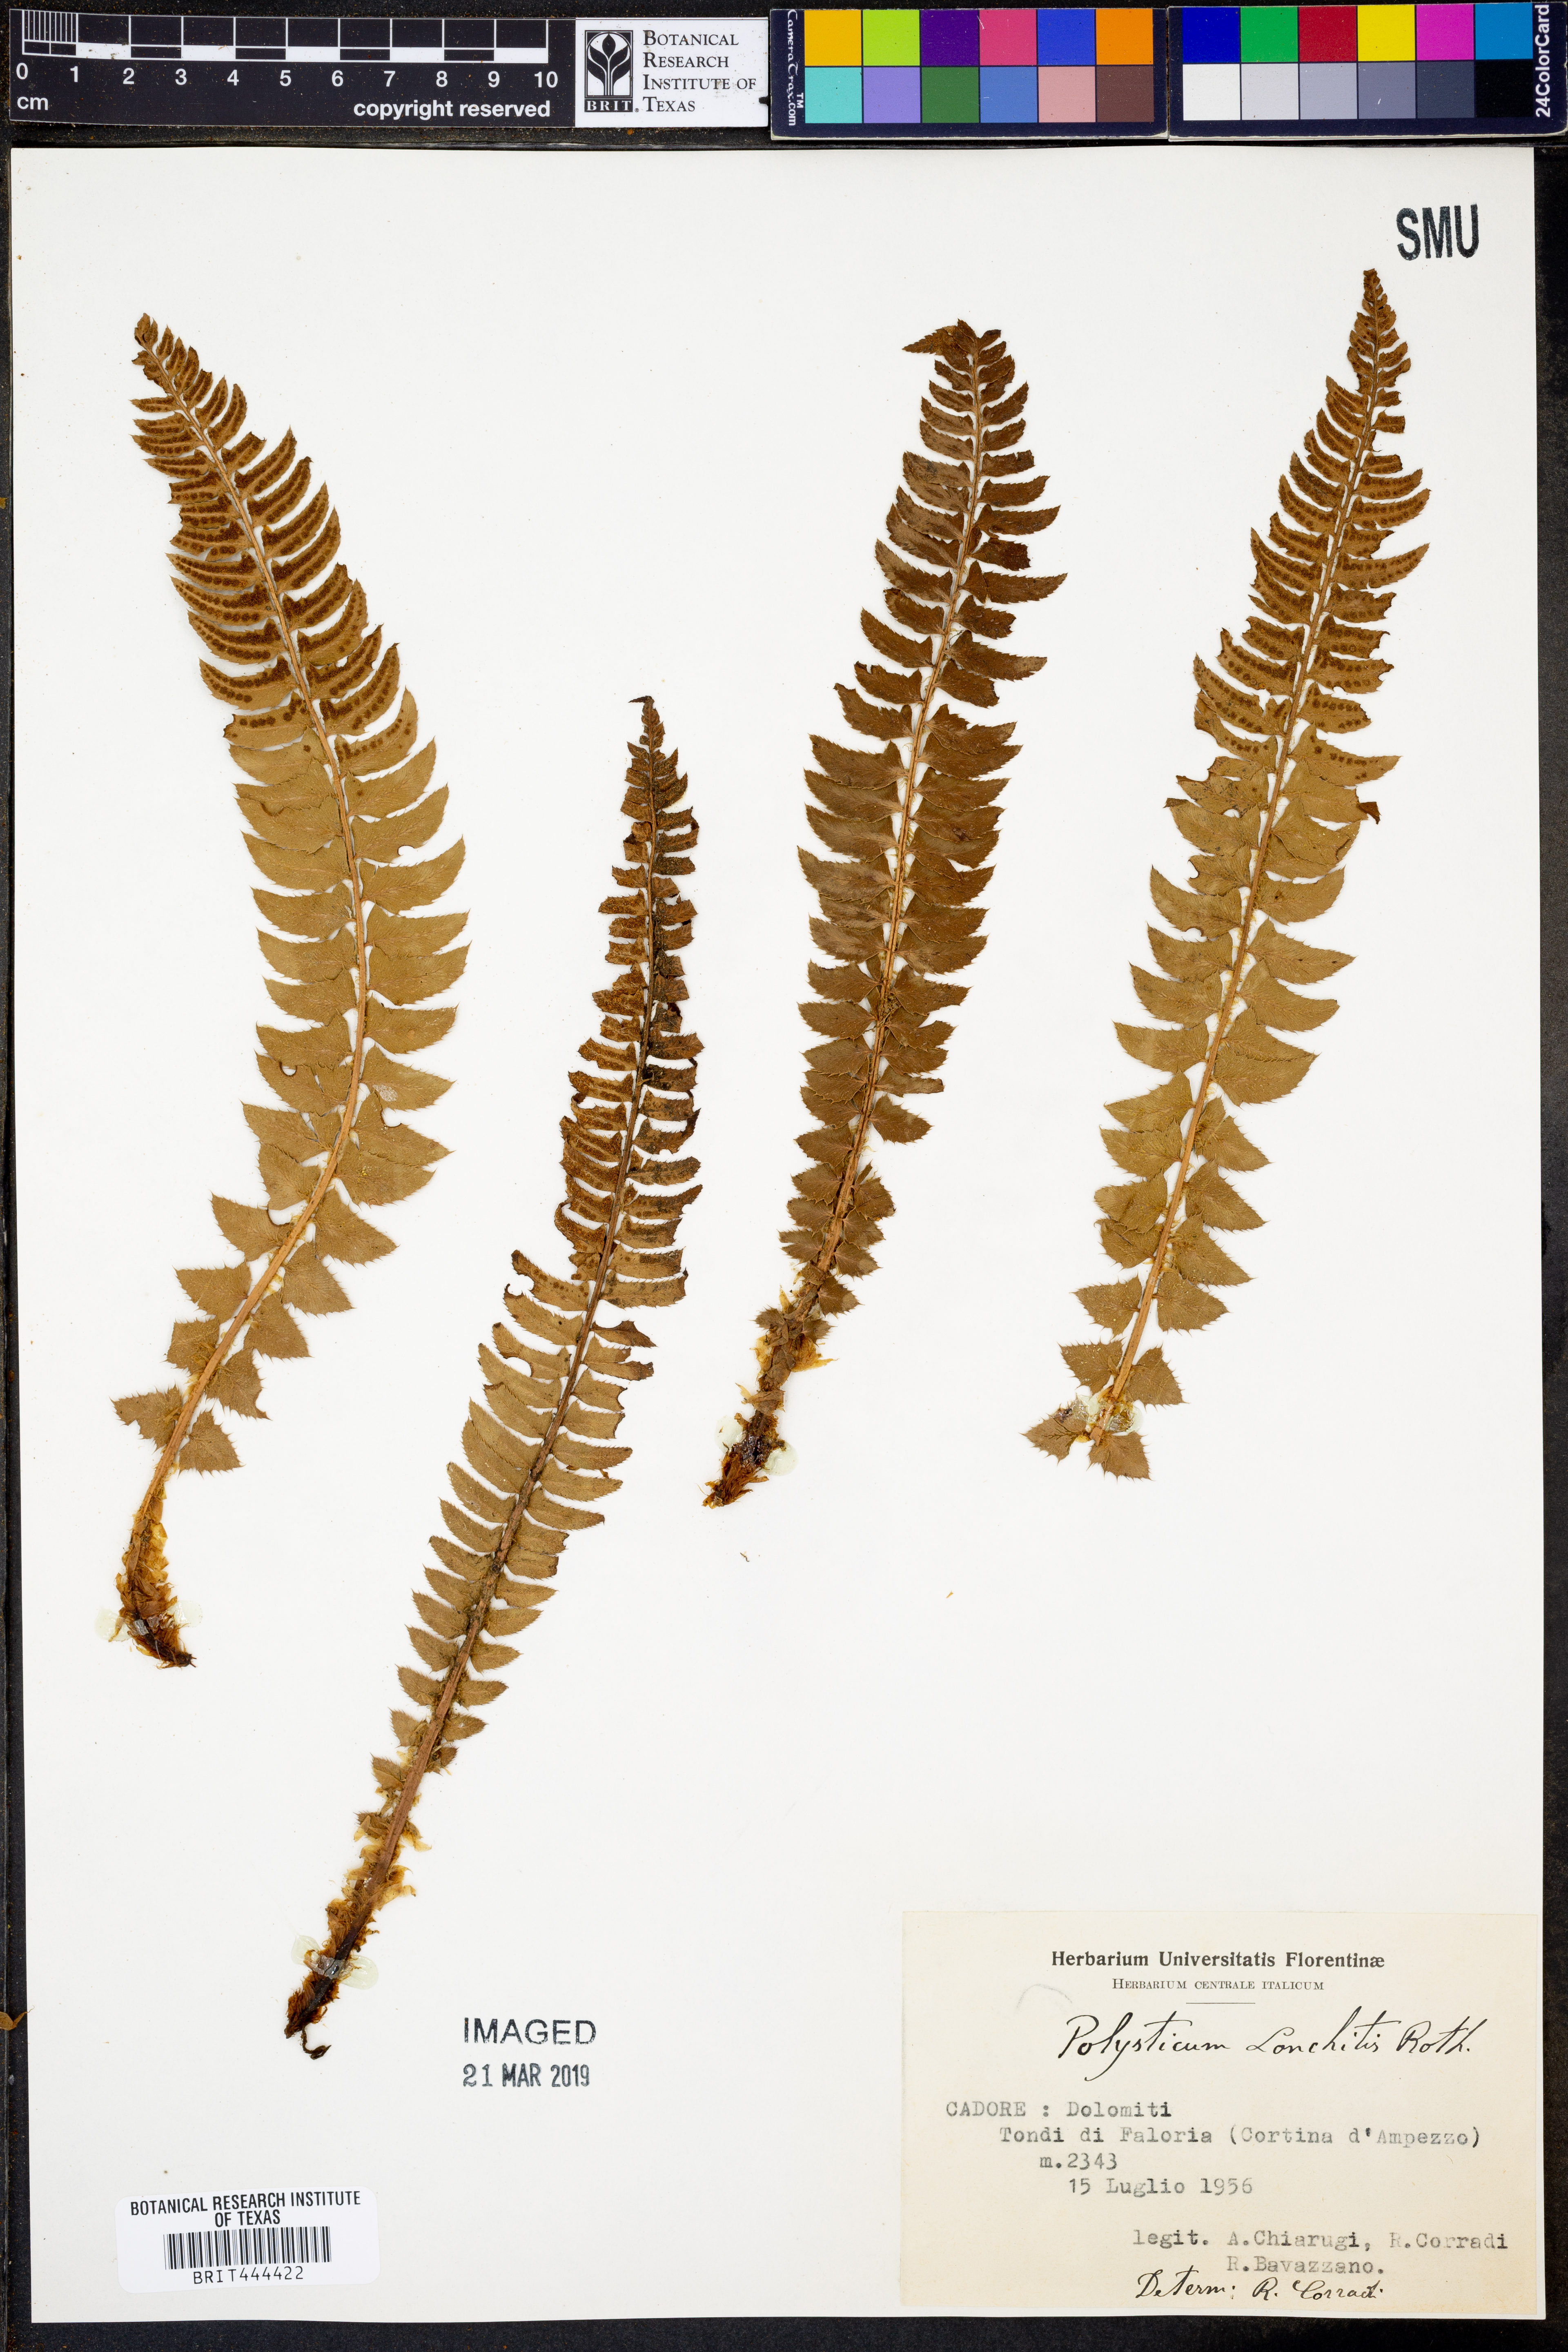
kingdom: Plantae
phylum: Tracheophyta
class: Polypodiopsida
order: Polypodiales
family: Dryopteridaceae
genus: Polystichum
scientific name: Polystichum lonchitis
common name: Holly fern
